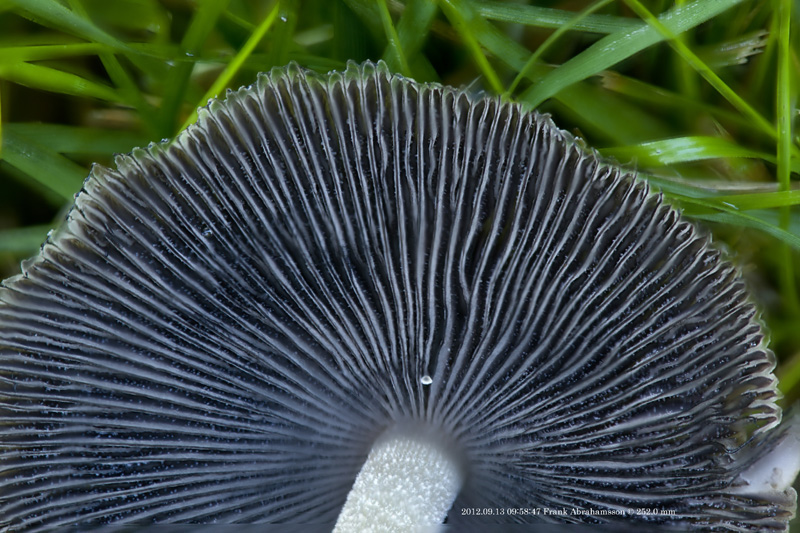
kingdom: Fungi
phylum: Basidiomycota
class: Agaricomycetes
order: Agaricales
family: Psathyrellaceae
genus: Coprinellus
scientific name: Coprinellus micaceus
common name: glimmer-blækhat
